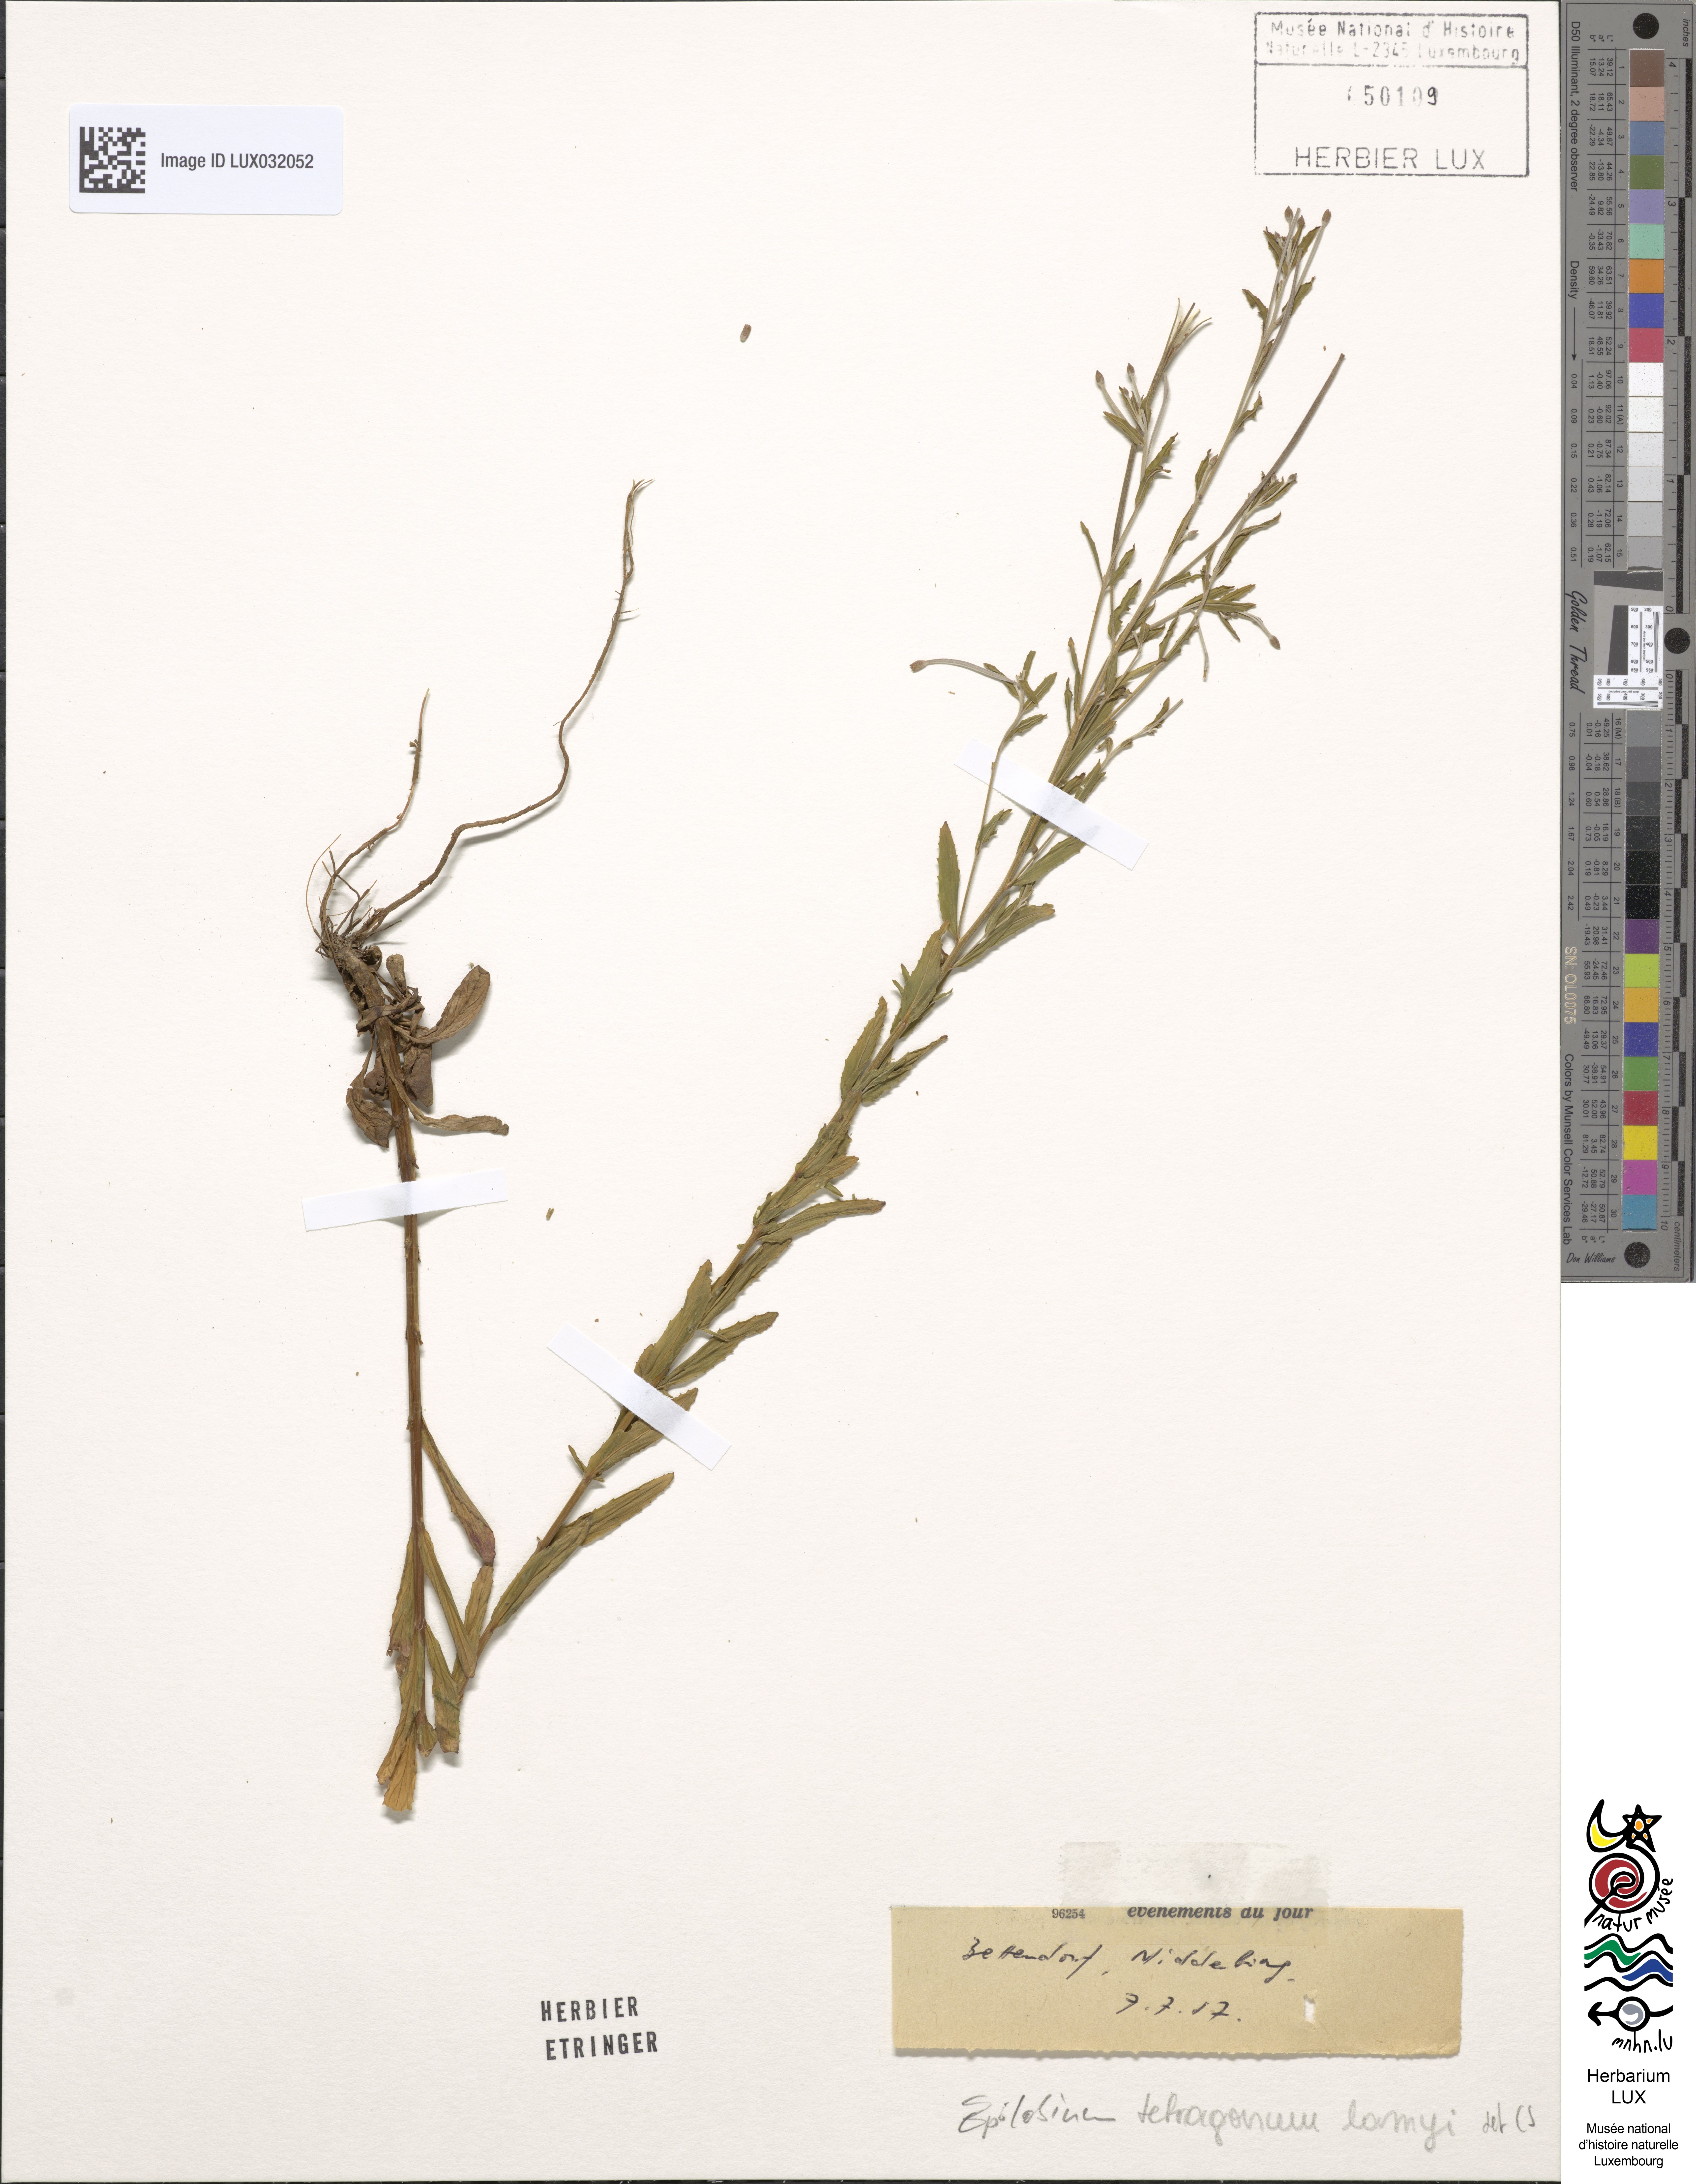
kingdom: Plantae
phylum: Tracheophyta
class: Magnoliopsida
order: Myrtales
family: Onagraceae
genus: Epilobium
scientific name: Epilobium lamyi
